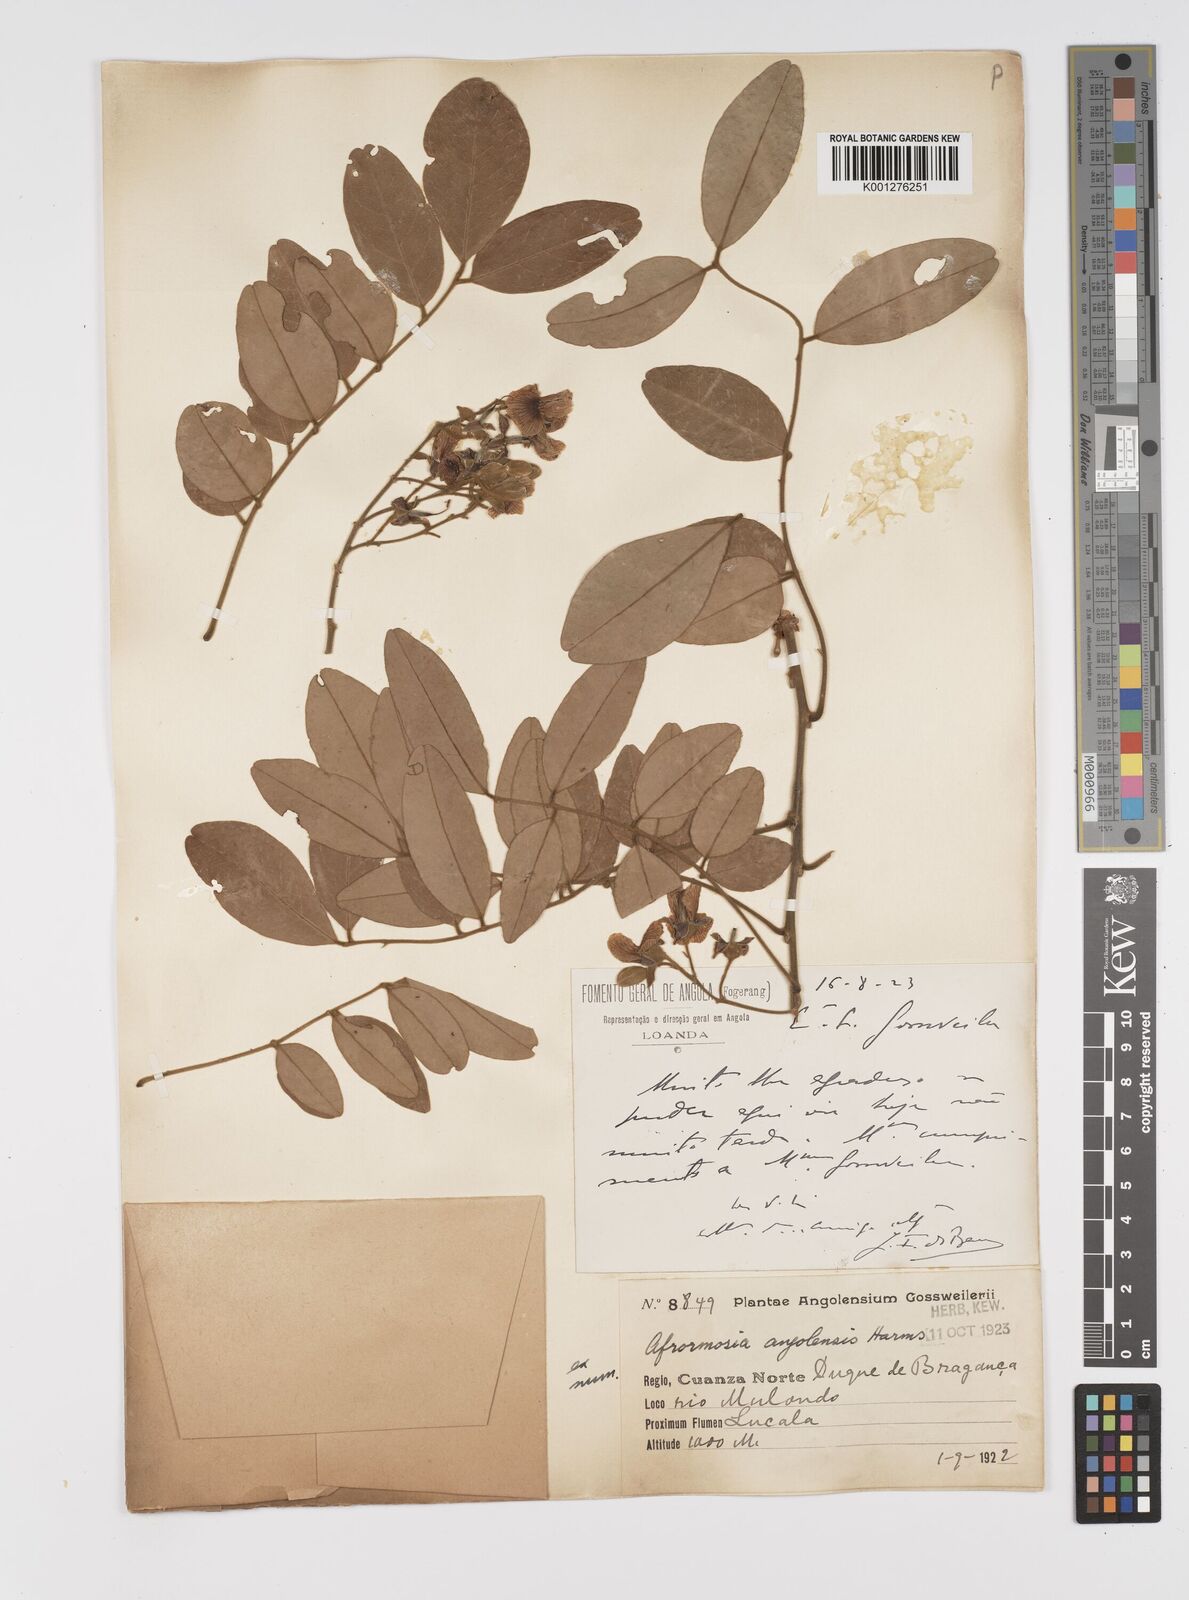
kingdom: Plantae
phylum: Tracheophyta
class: Magnoliopsida
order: Fabales
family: Fabaceae
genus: Pericopsis
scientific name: Pericopsis angolensis
